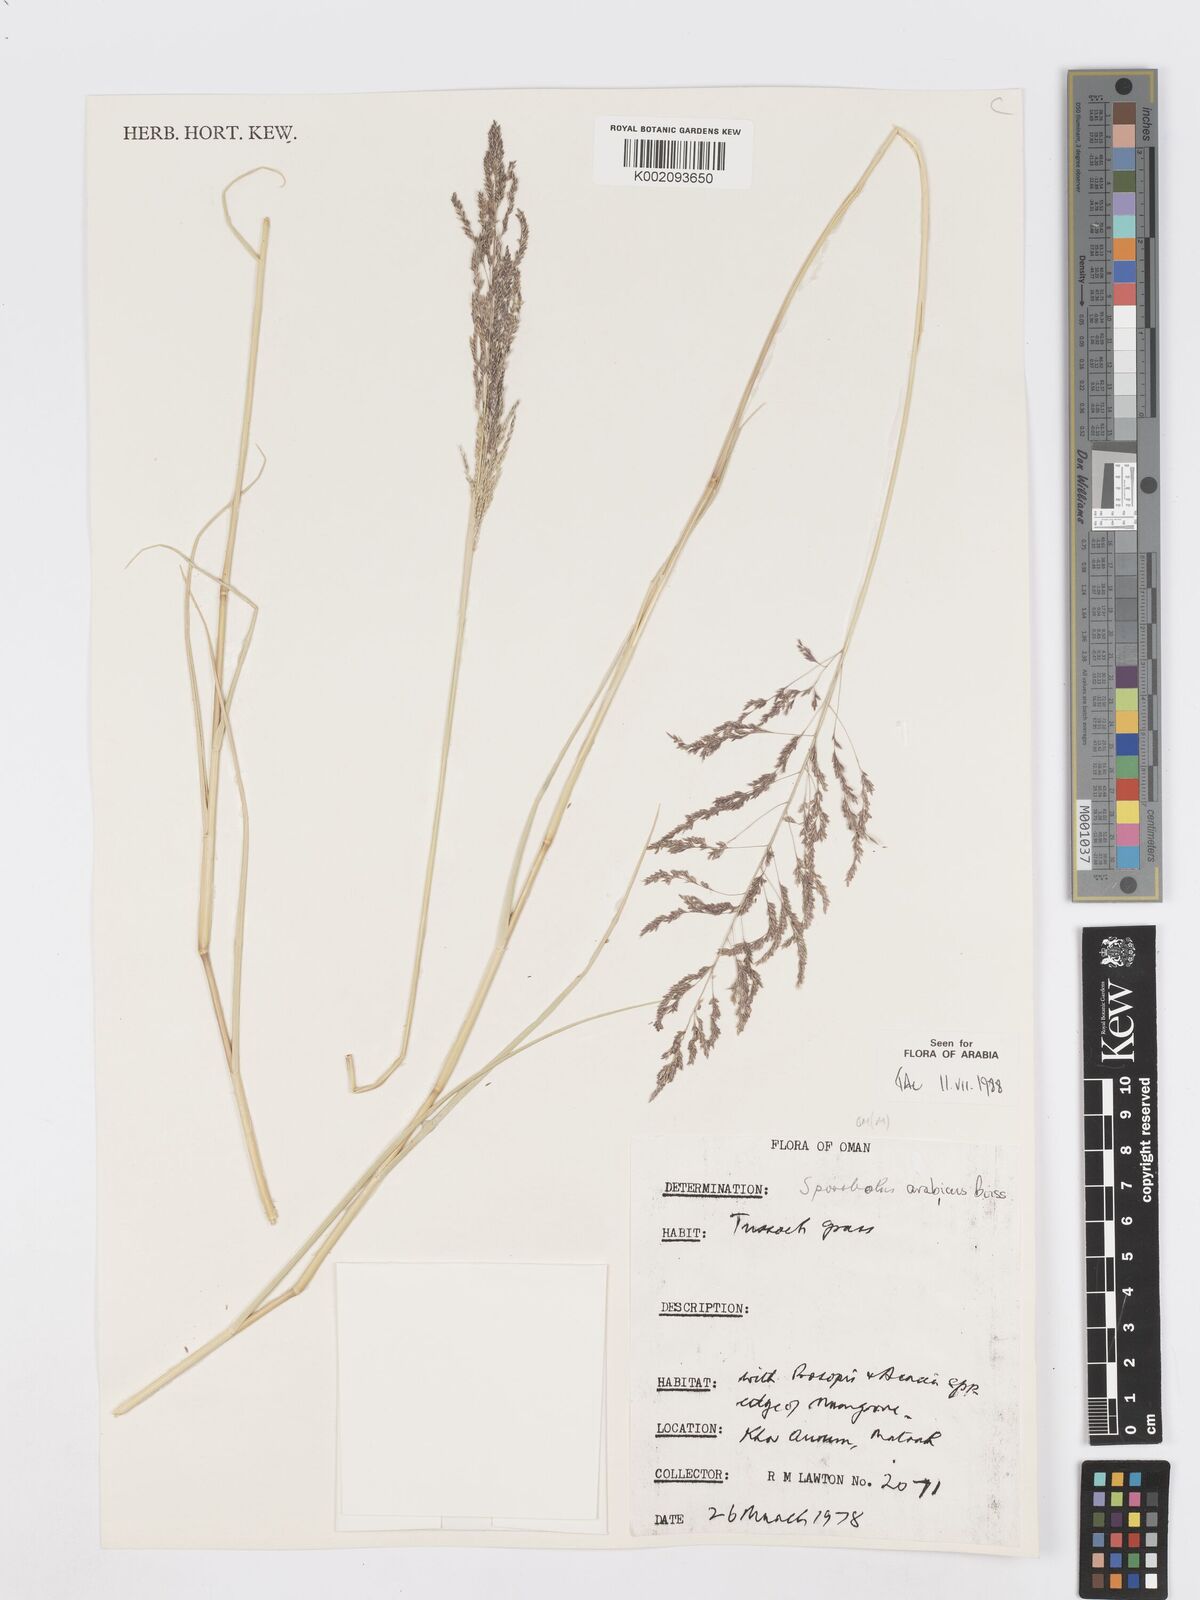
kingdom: Plantae
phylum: Tracheophyta
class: Liliopsida
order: Poales
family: Poaceae
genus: Sporobolus
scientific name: Sporobolus ioclados
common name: Pan dropseed
